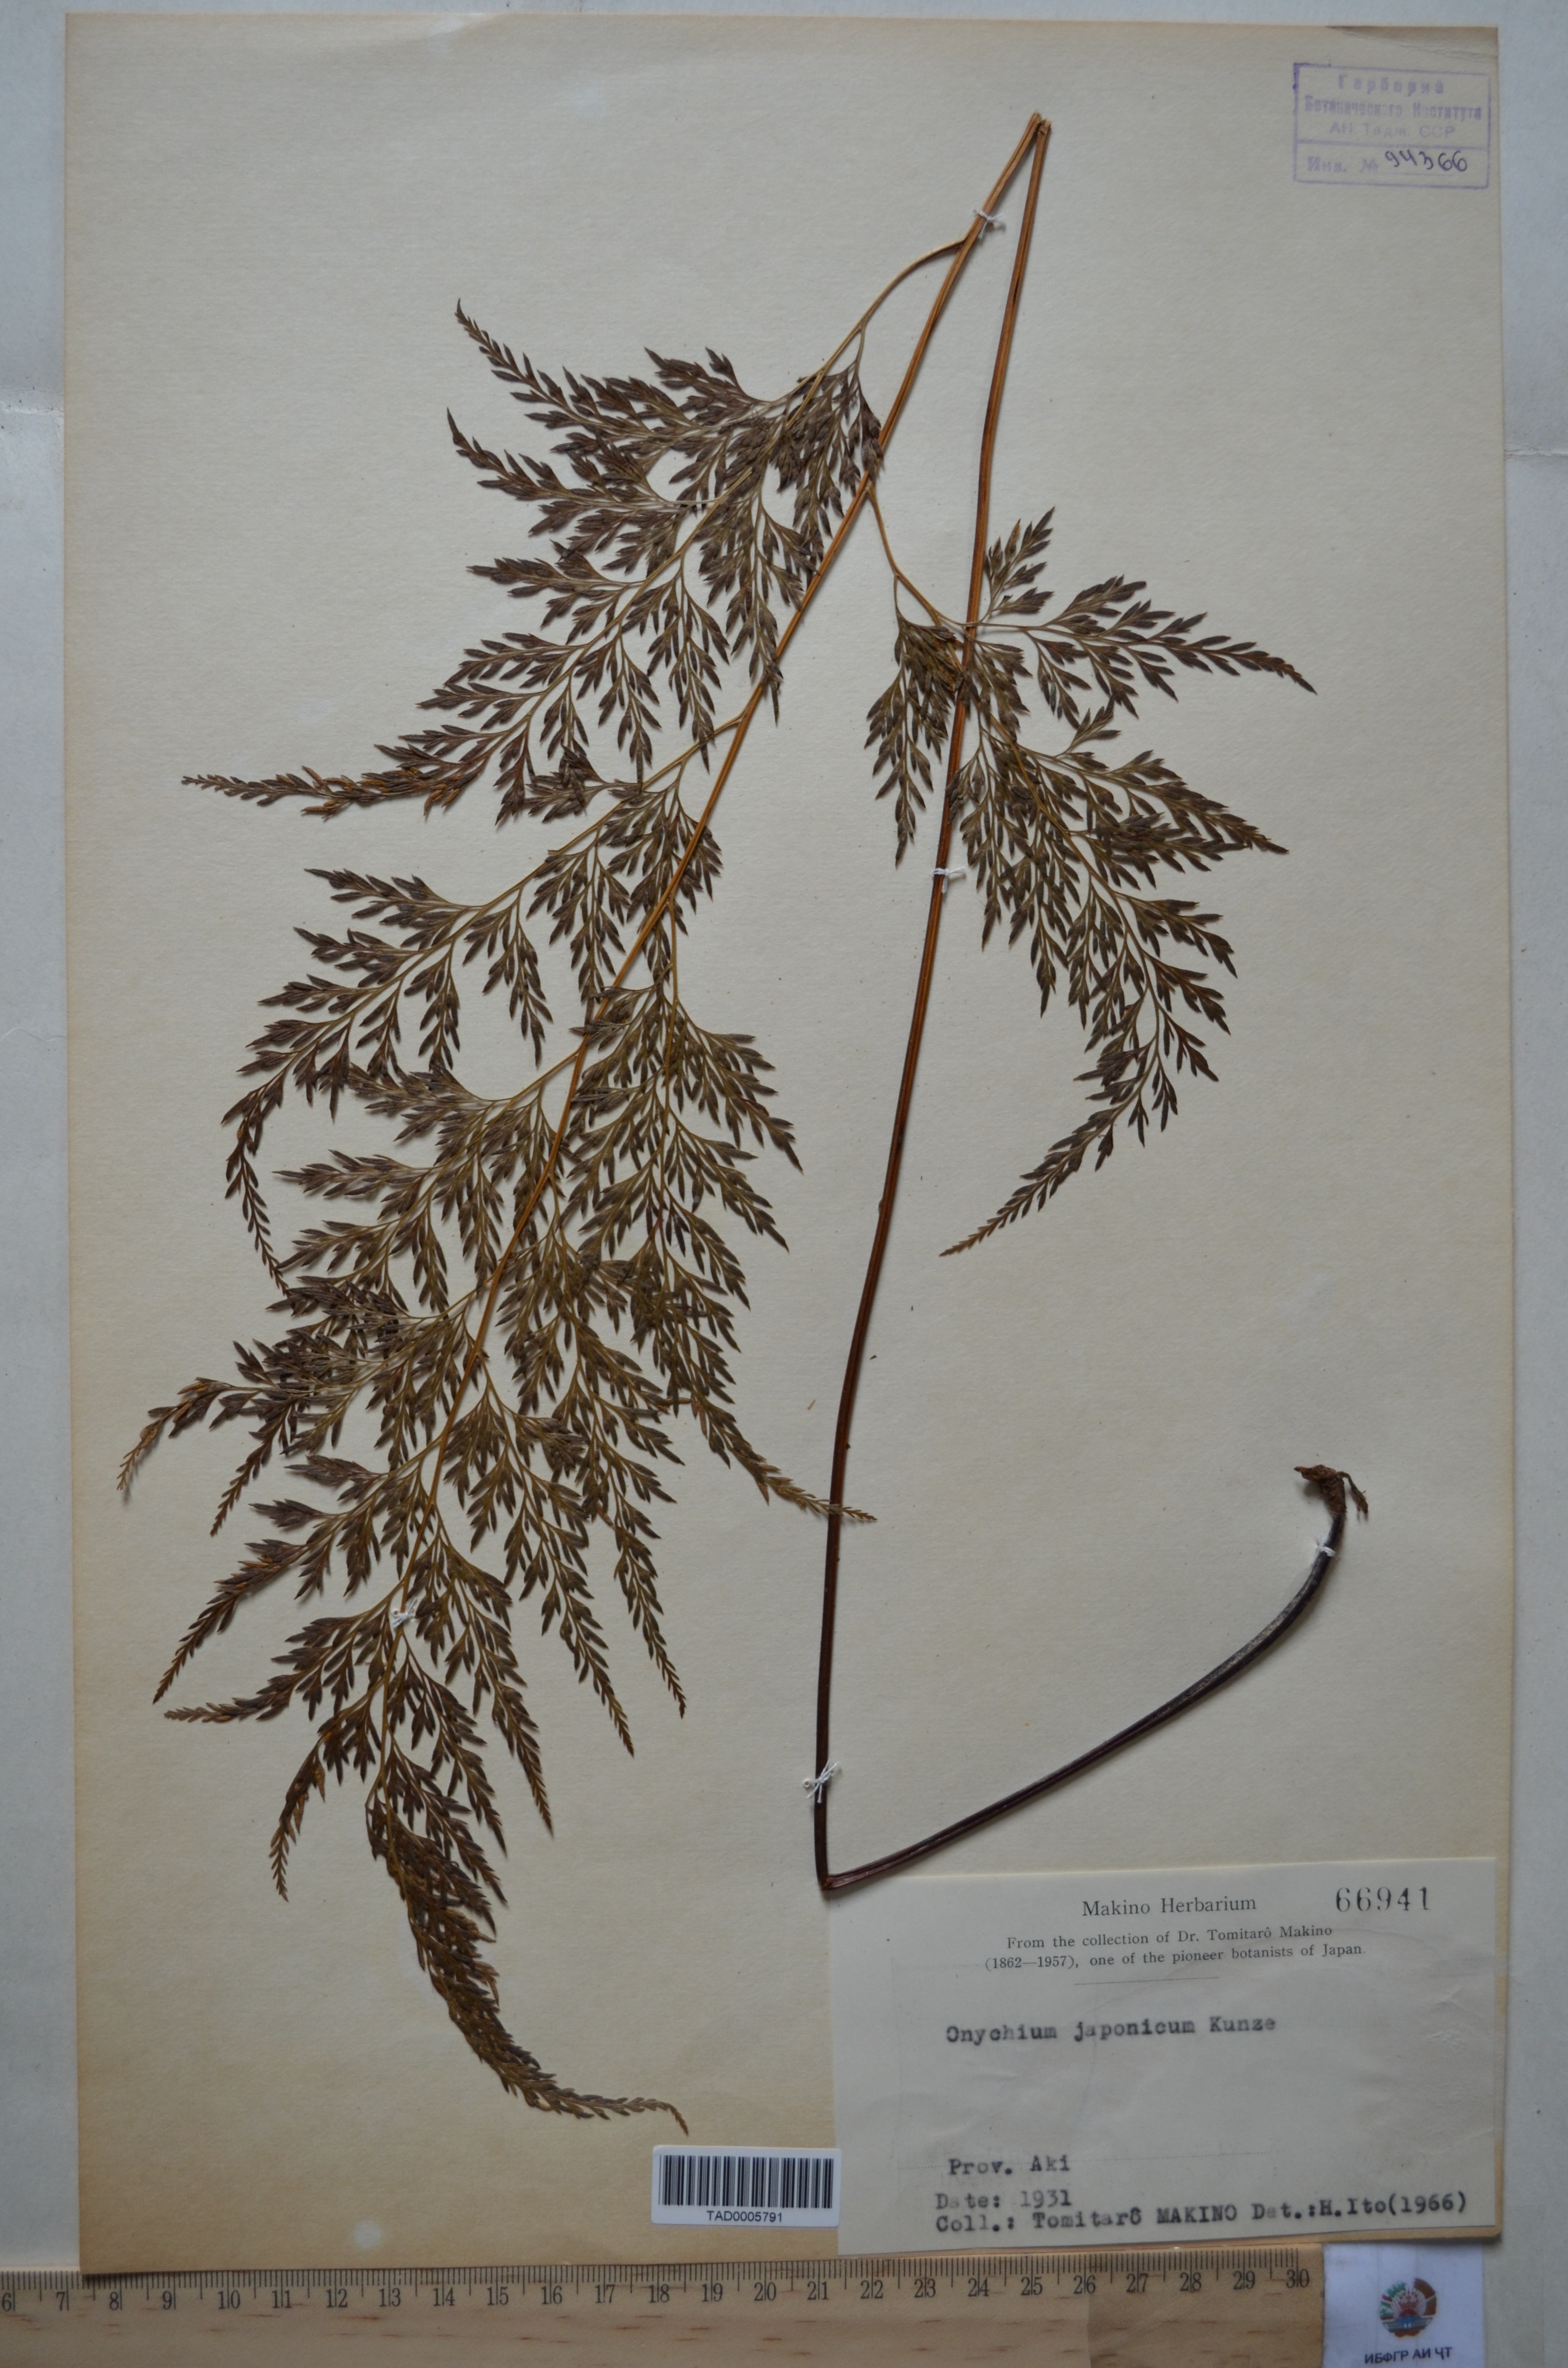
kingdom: Plantae
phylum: Tracheophyta
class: Polypodiopsida
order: Polypodiales
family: Pteridaceae
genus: Onychium
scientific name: Onychium japonicum
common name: Carrot fern
